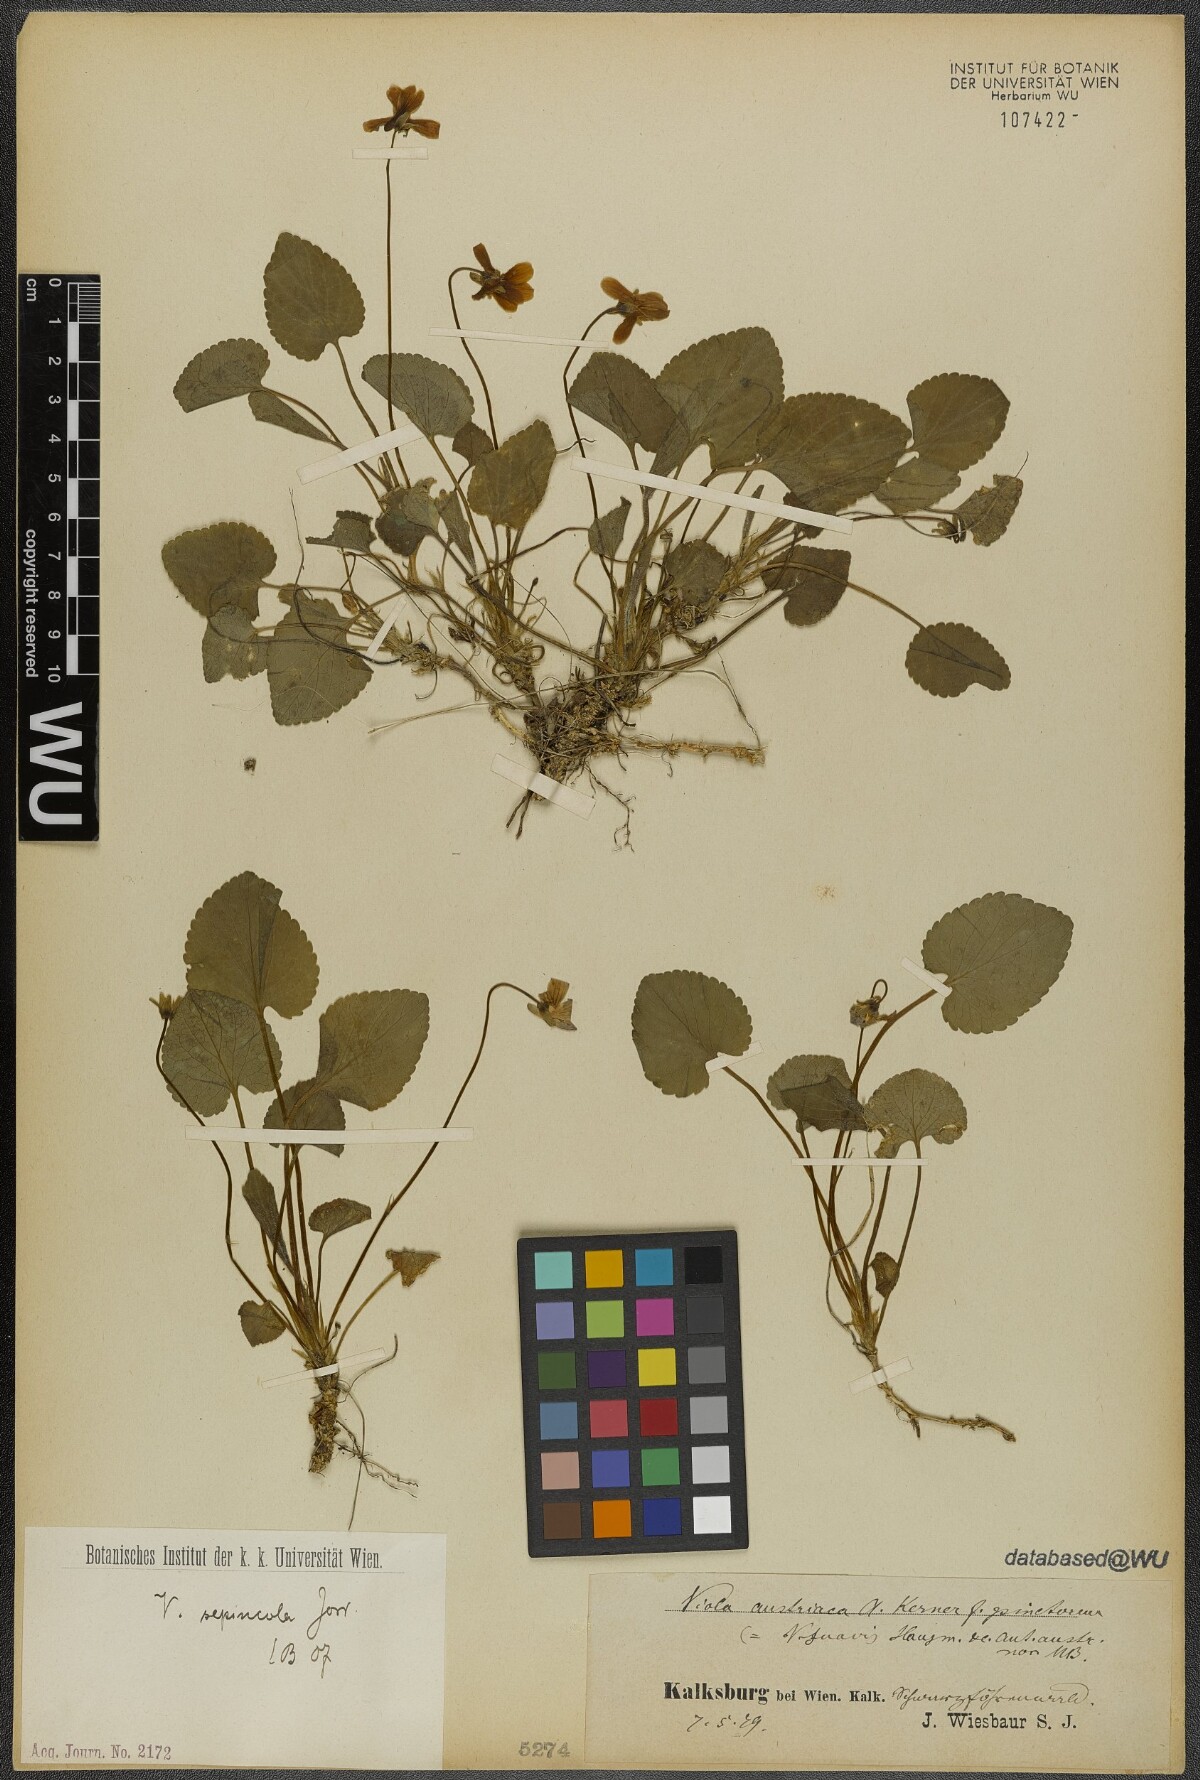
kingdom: Plantae
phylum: Tracheophyta
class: Magnoliopsida
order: Malpighiales
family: Violaceae
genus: Viola
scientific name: Viola suavis
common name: Russian violet
